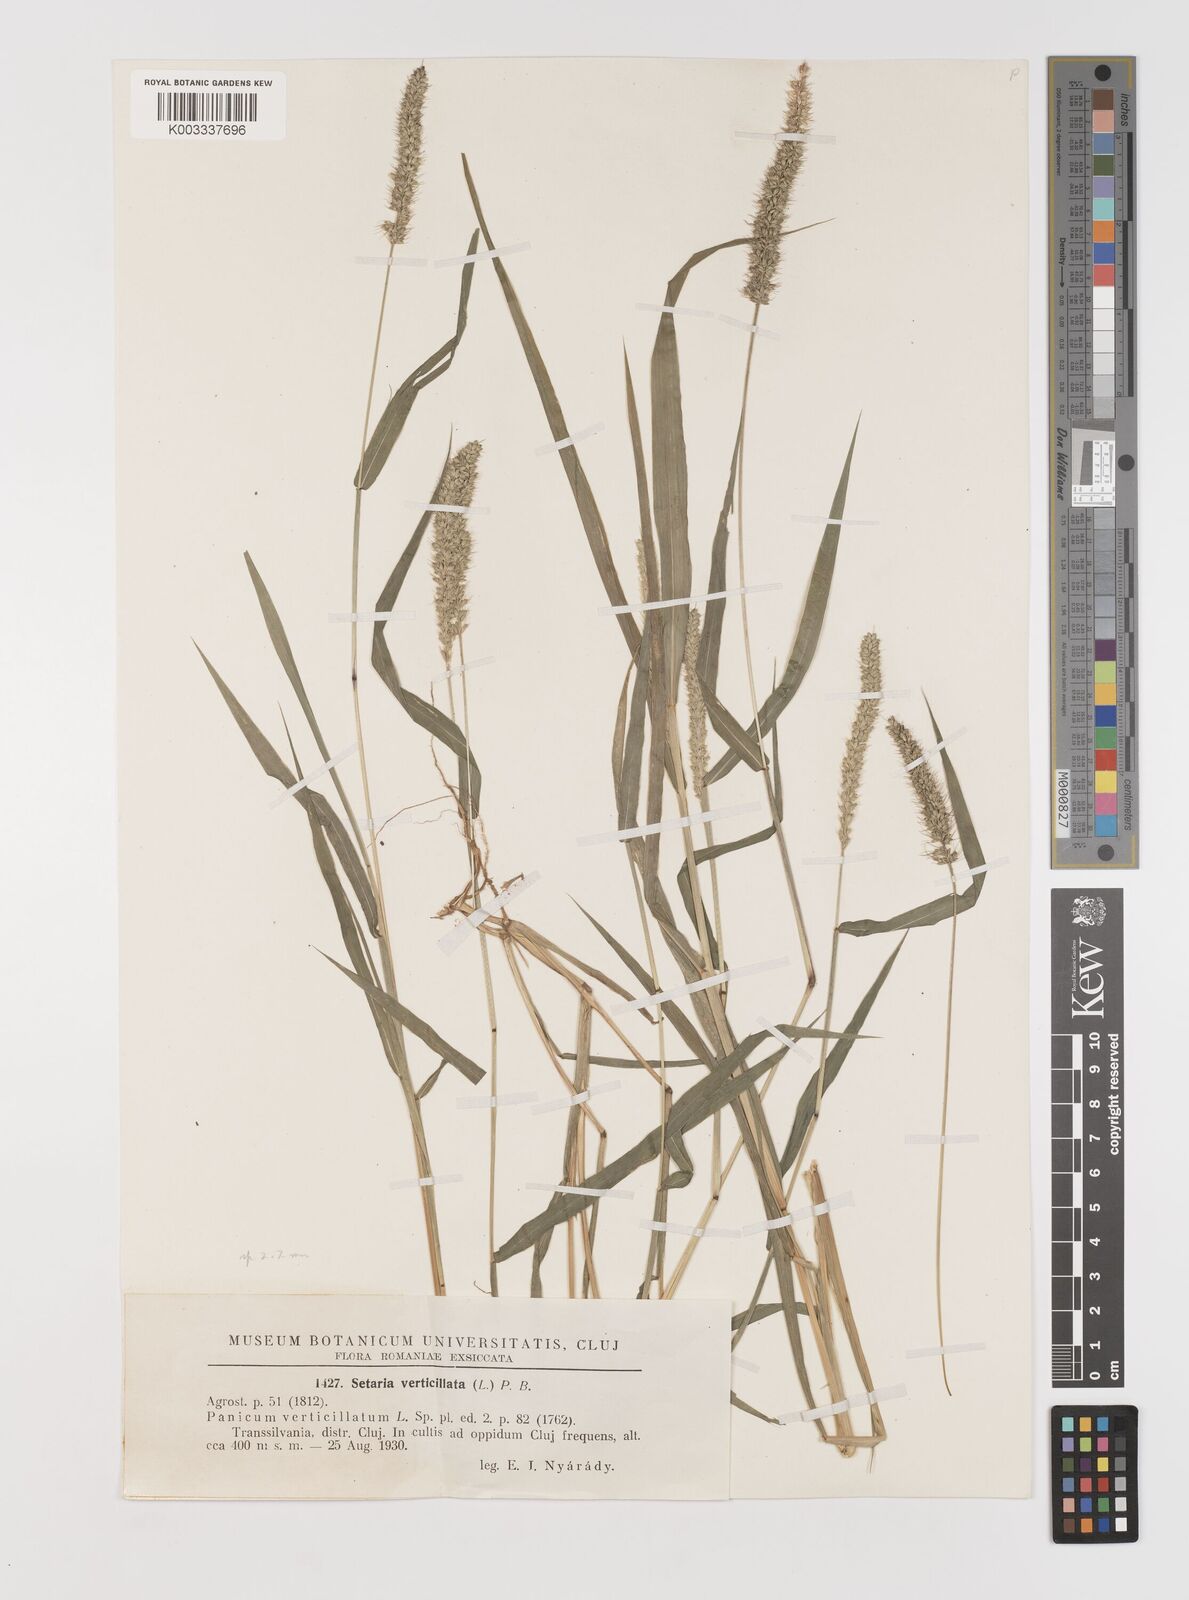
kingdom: Plantae
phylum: Tracheophyta
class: Liliopsida
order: Poales
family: Poaceae
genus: Setaria
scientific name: Setaria verticillata
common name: Hooked bristlegrass
